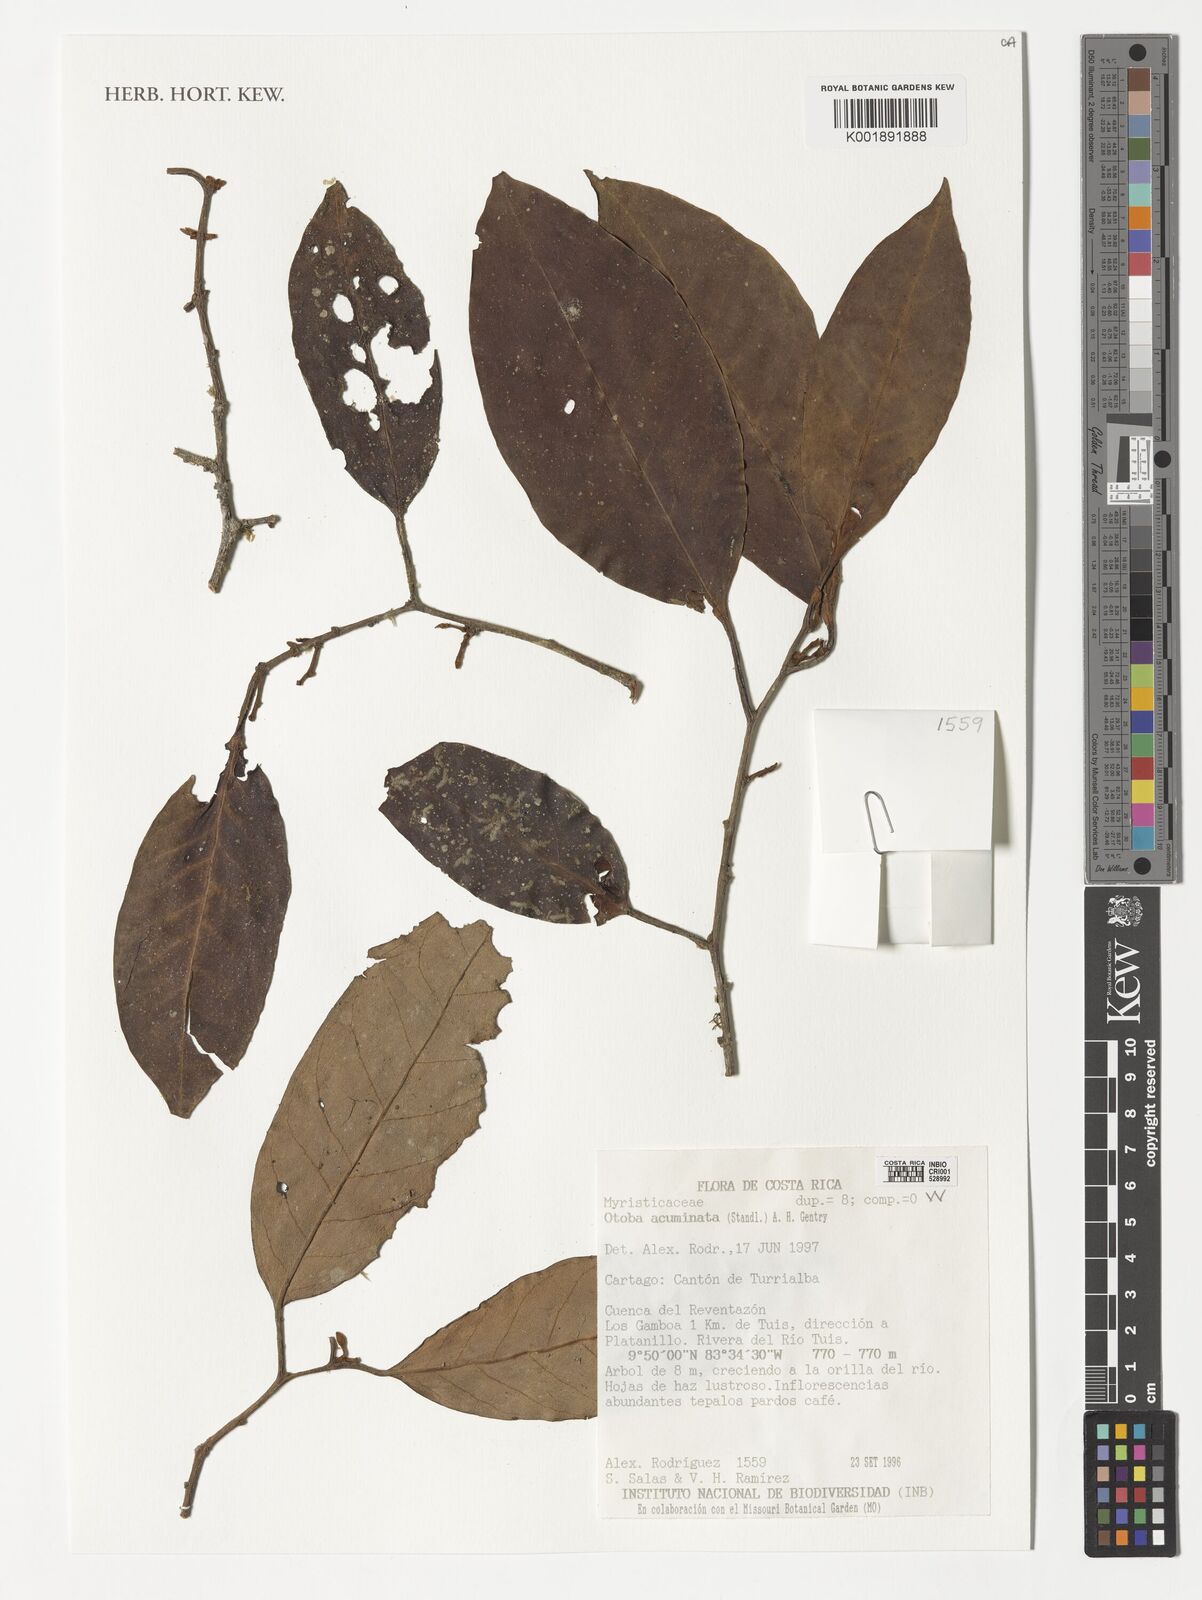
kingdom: Plantae
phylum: Tracheophyta
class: Magnoliopsida
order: Magnoliales
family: Myristicaceae
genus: Otoba
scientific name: Otoba acuminata
